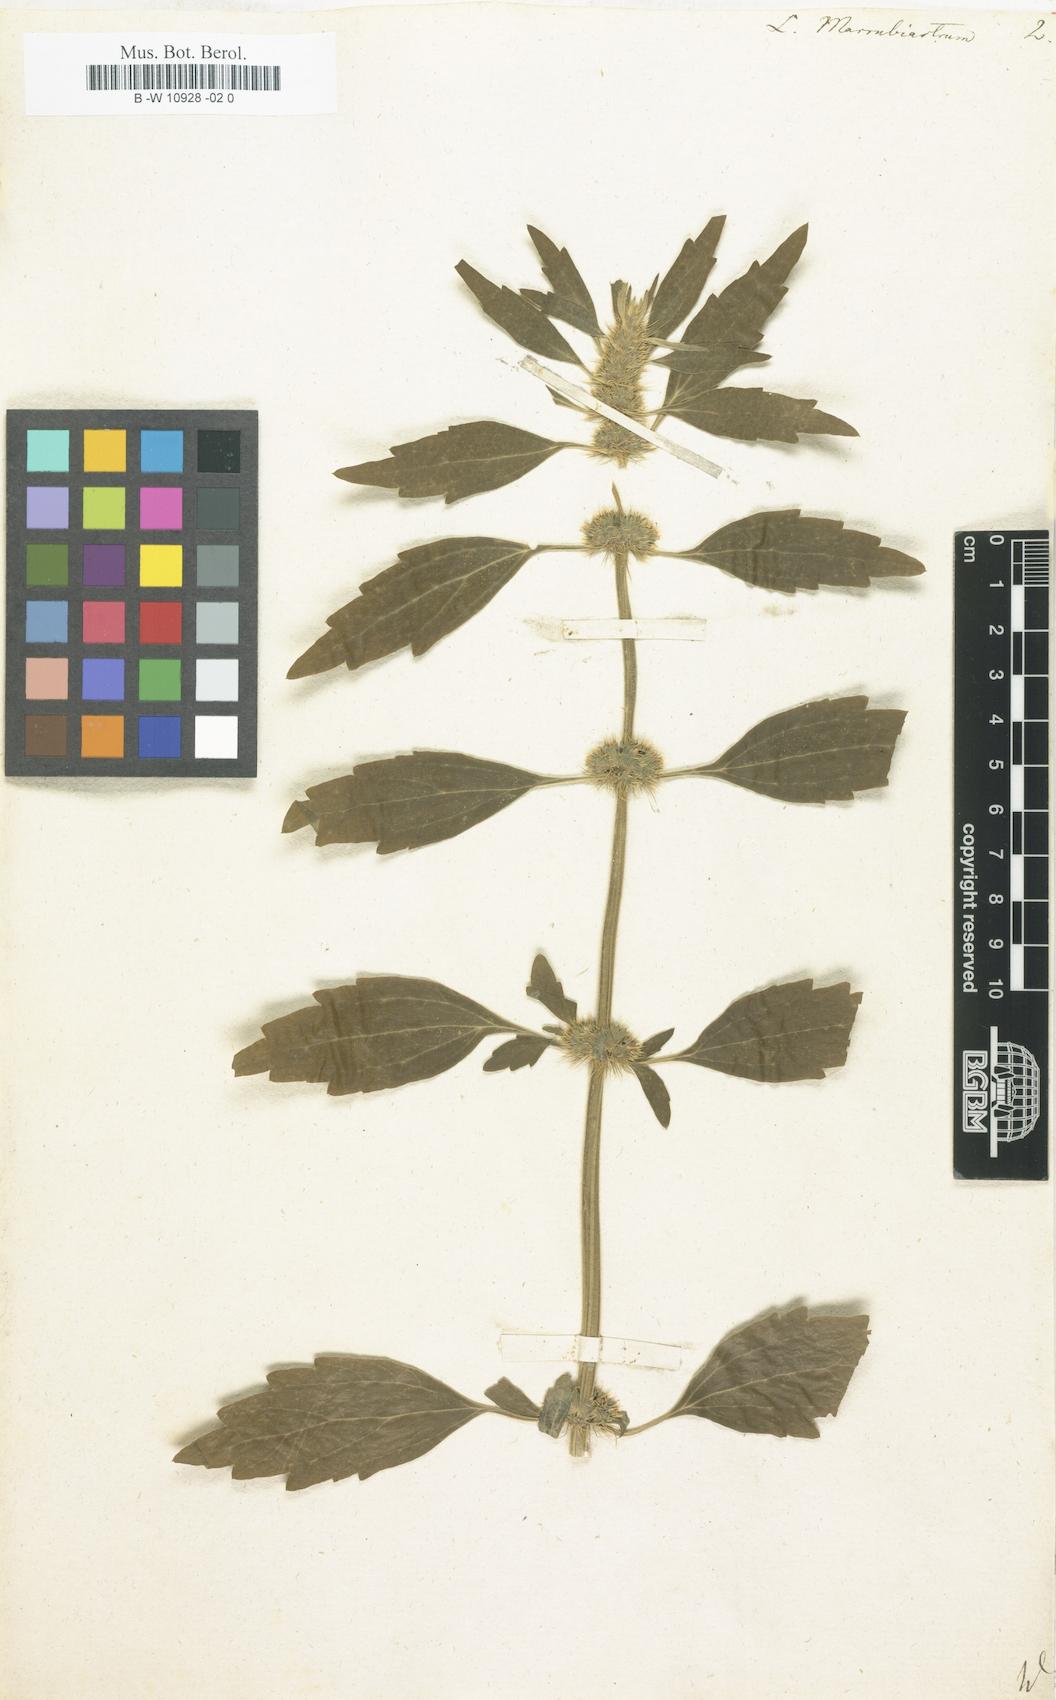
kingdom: Plantae
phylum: Tracheophyta
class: Magnoliopsida
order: Lamiales
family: Lamiaceae
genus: Leonurus
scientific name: Leonurus marrubiastrum
